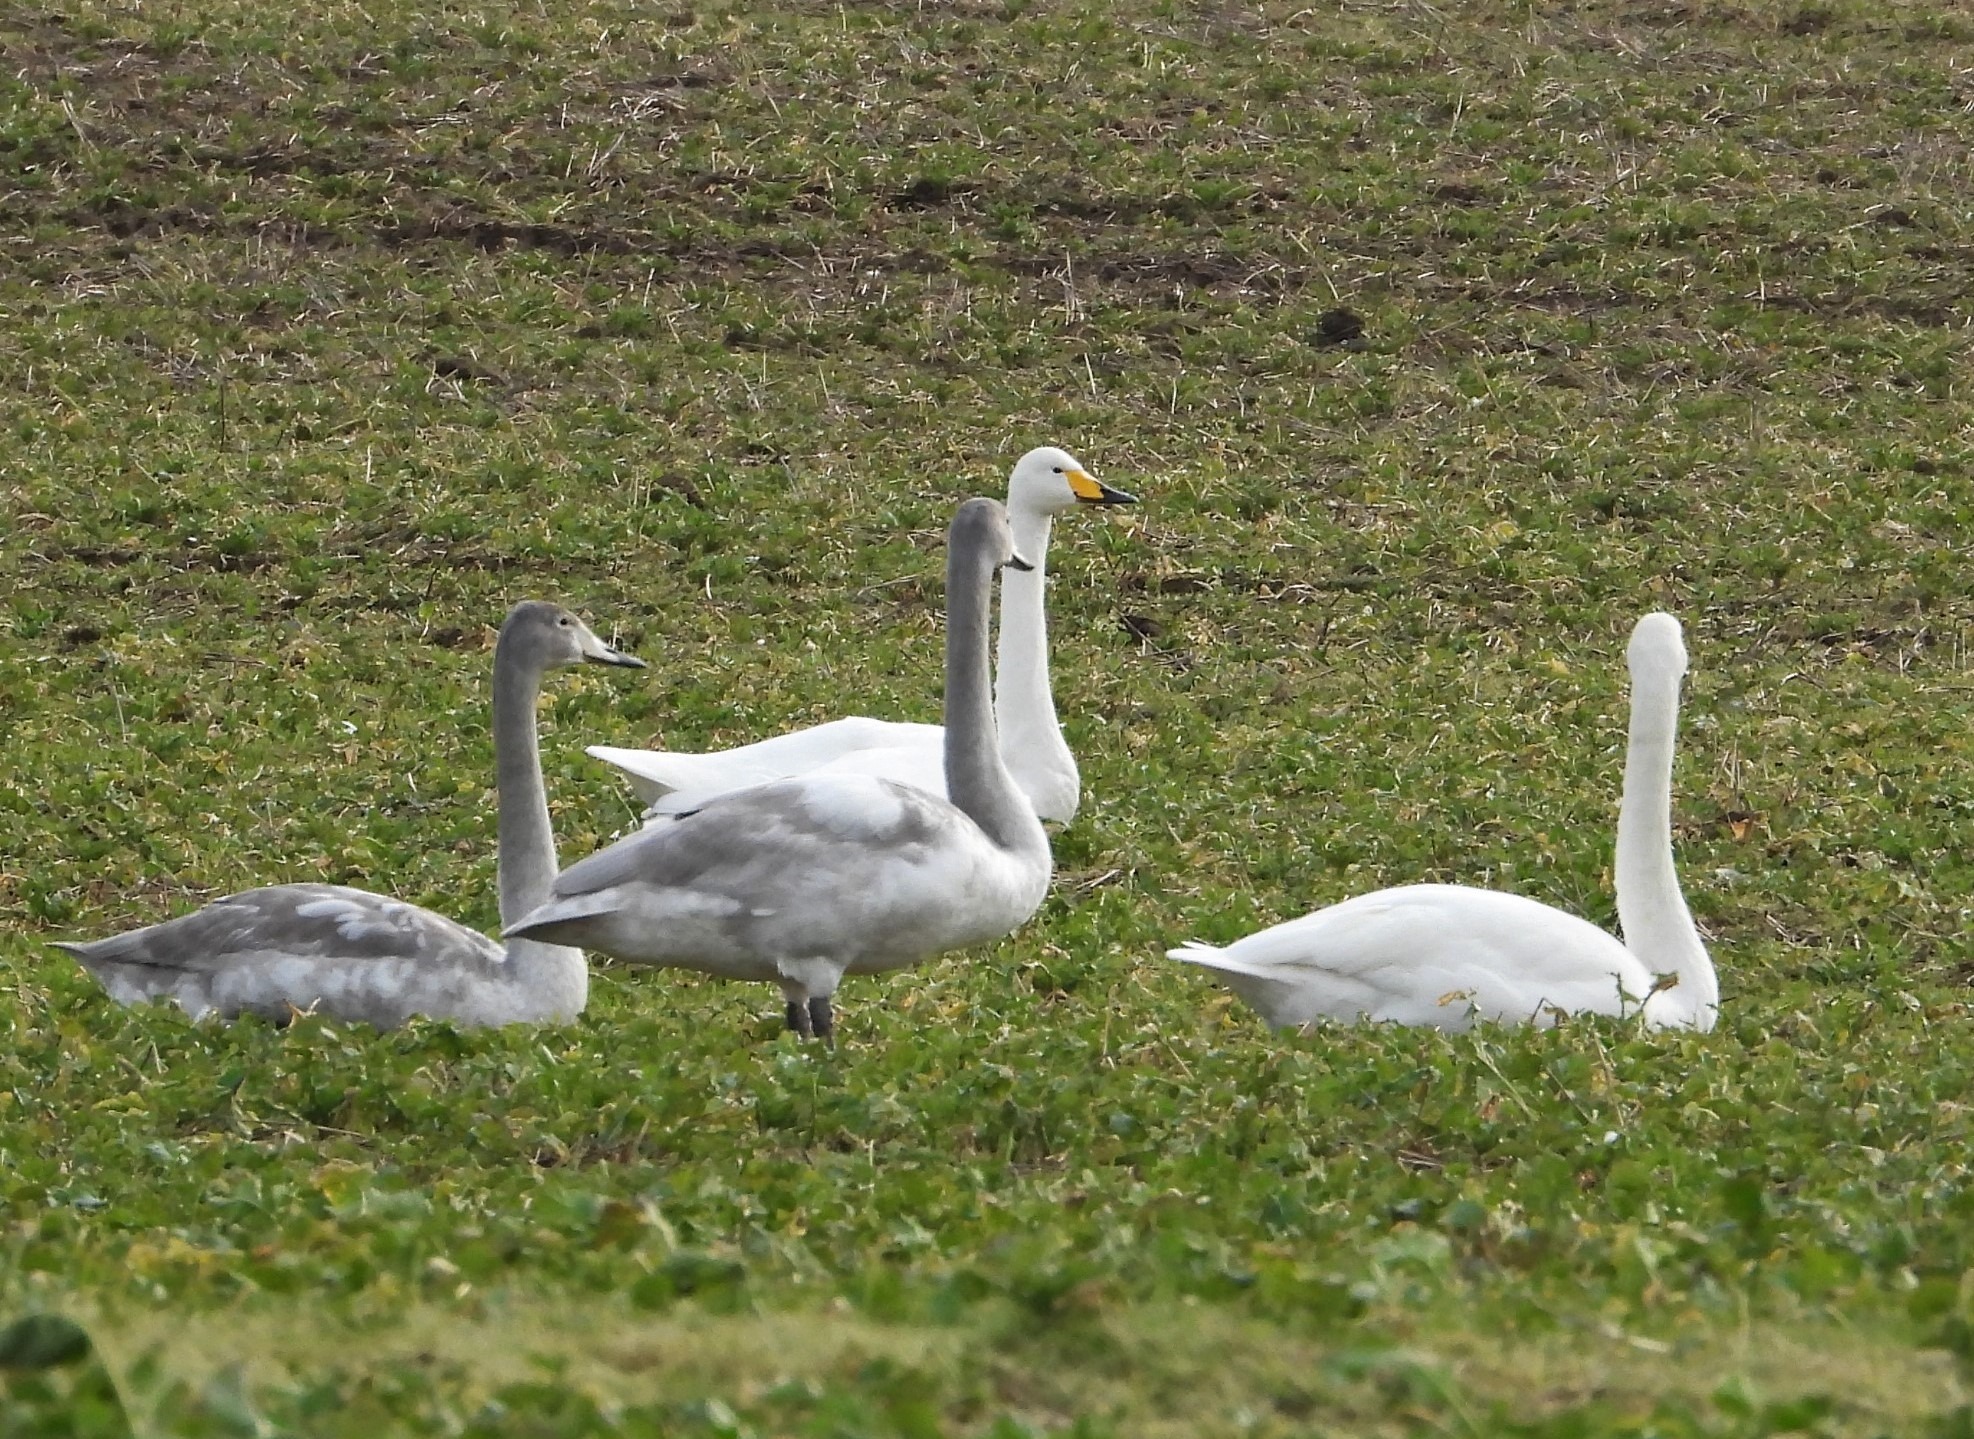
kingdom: Animalia
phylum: Chordata
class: Aves
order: Anseriformes
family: Anatidae
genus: Cygnus
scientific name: Cygnus cygnus
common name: Sangsvane
